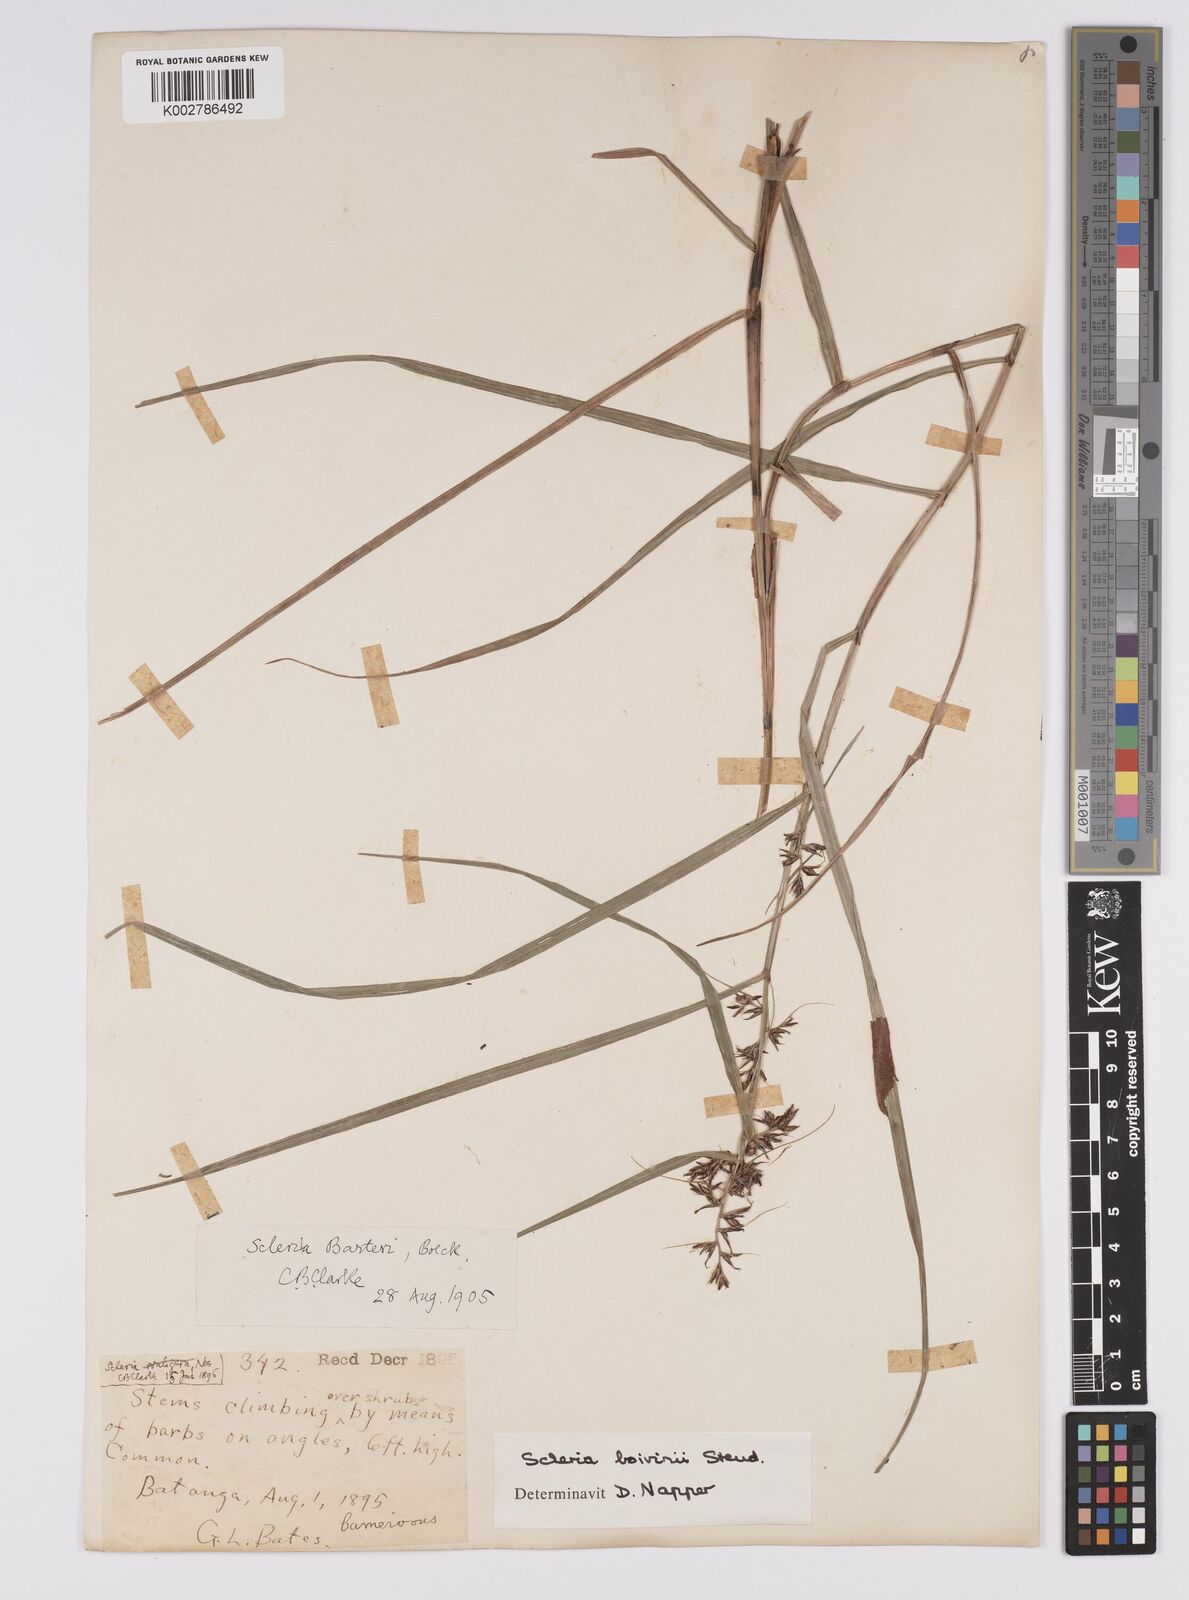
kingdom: Plantae
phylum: Tracheophyta
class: Liliopsida
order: Poales
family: Cyperaceae
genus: Scleria
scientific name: Scleria boivinii
